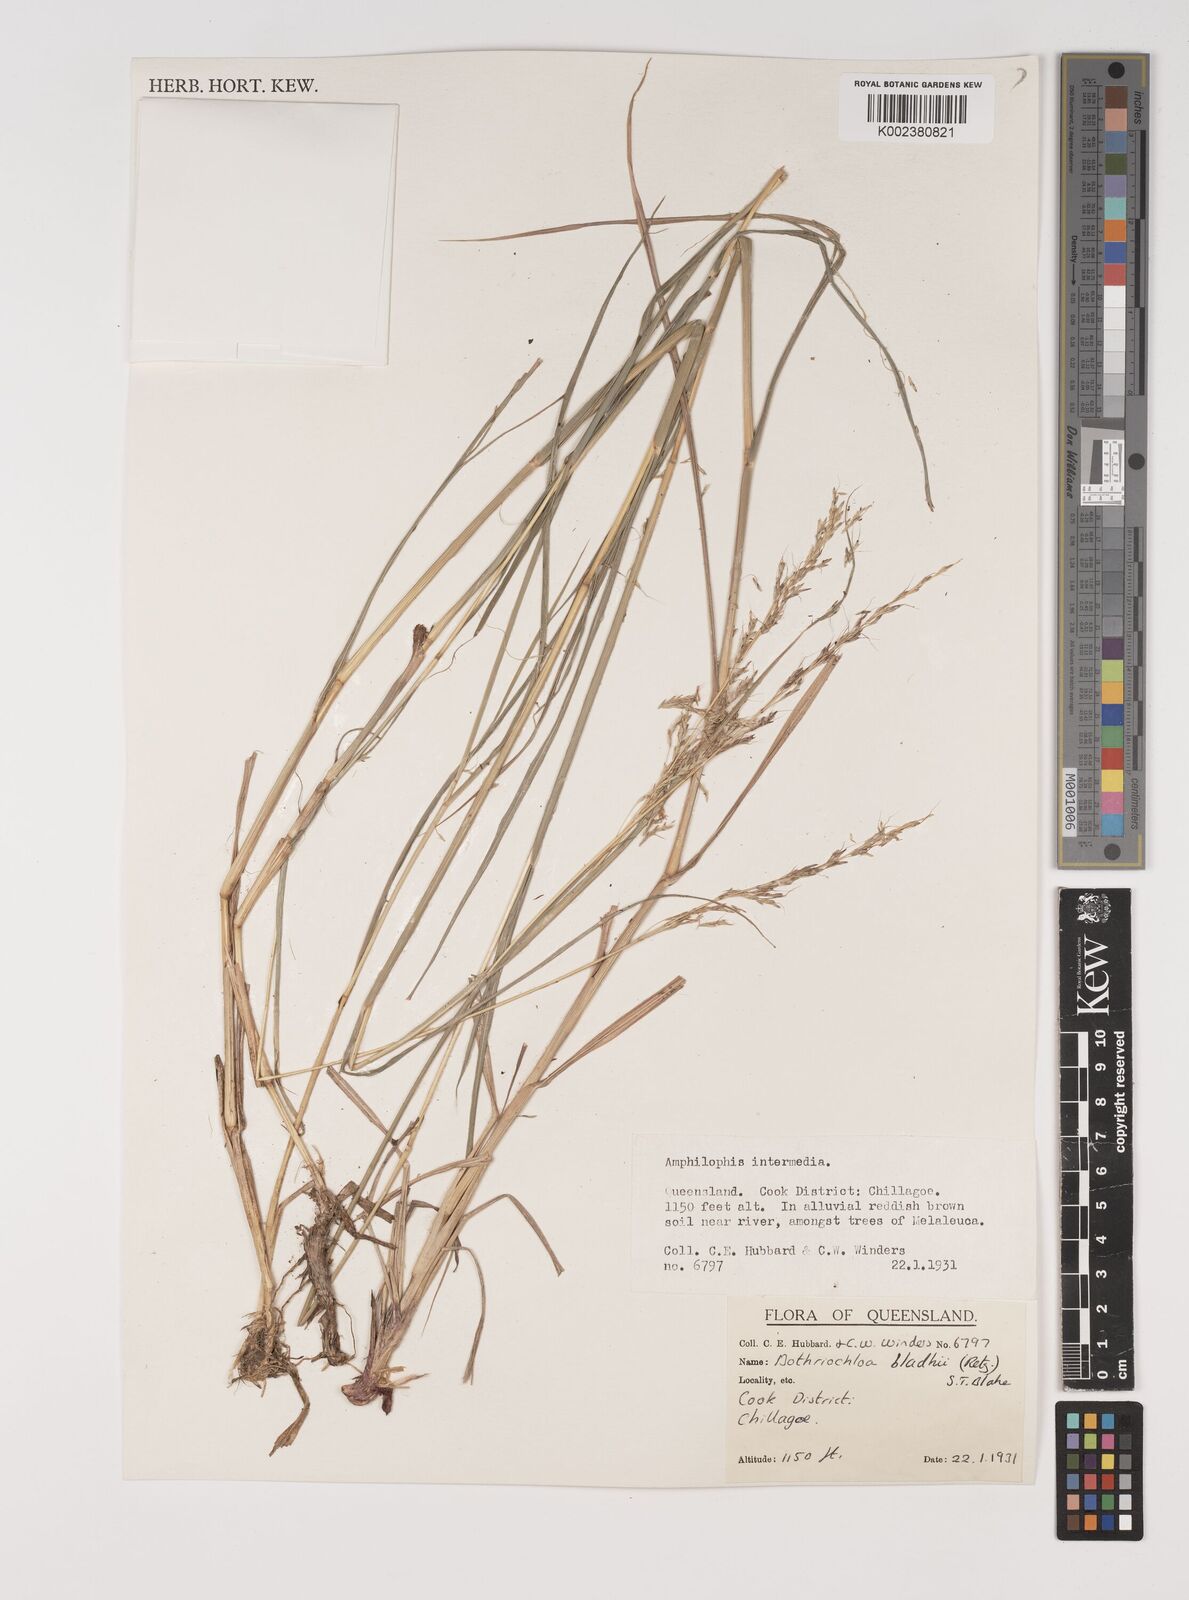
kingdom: Plantae
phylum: Tracheophyta
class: Liliopsida
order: Poales
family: Poaceae
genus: Bothriochloa
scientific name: Bothriochloa bladhii
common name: Caucasian bluestem
